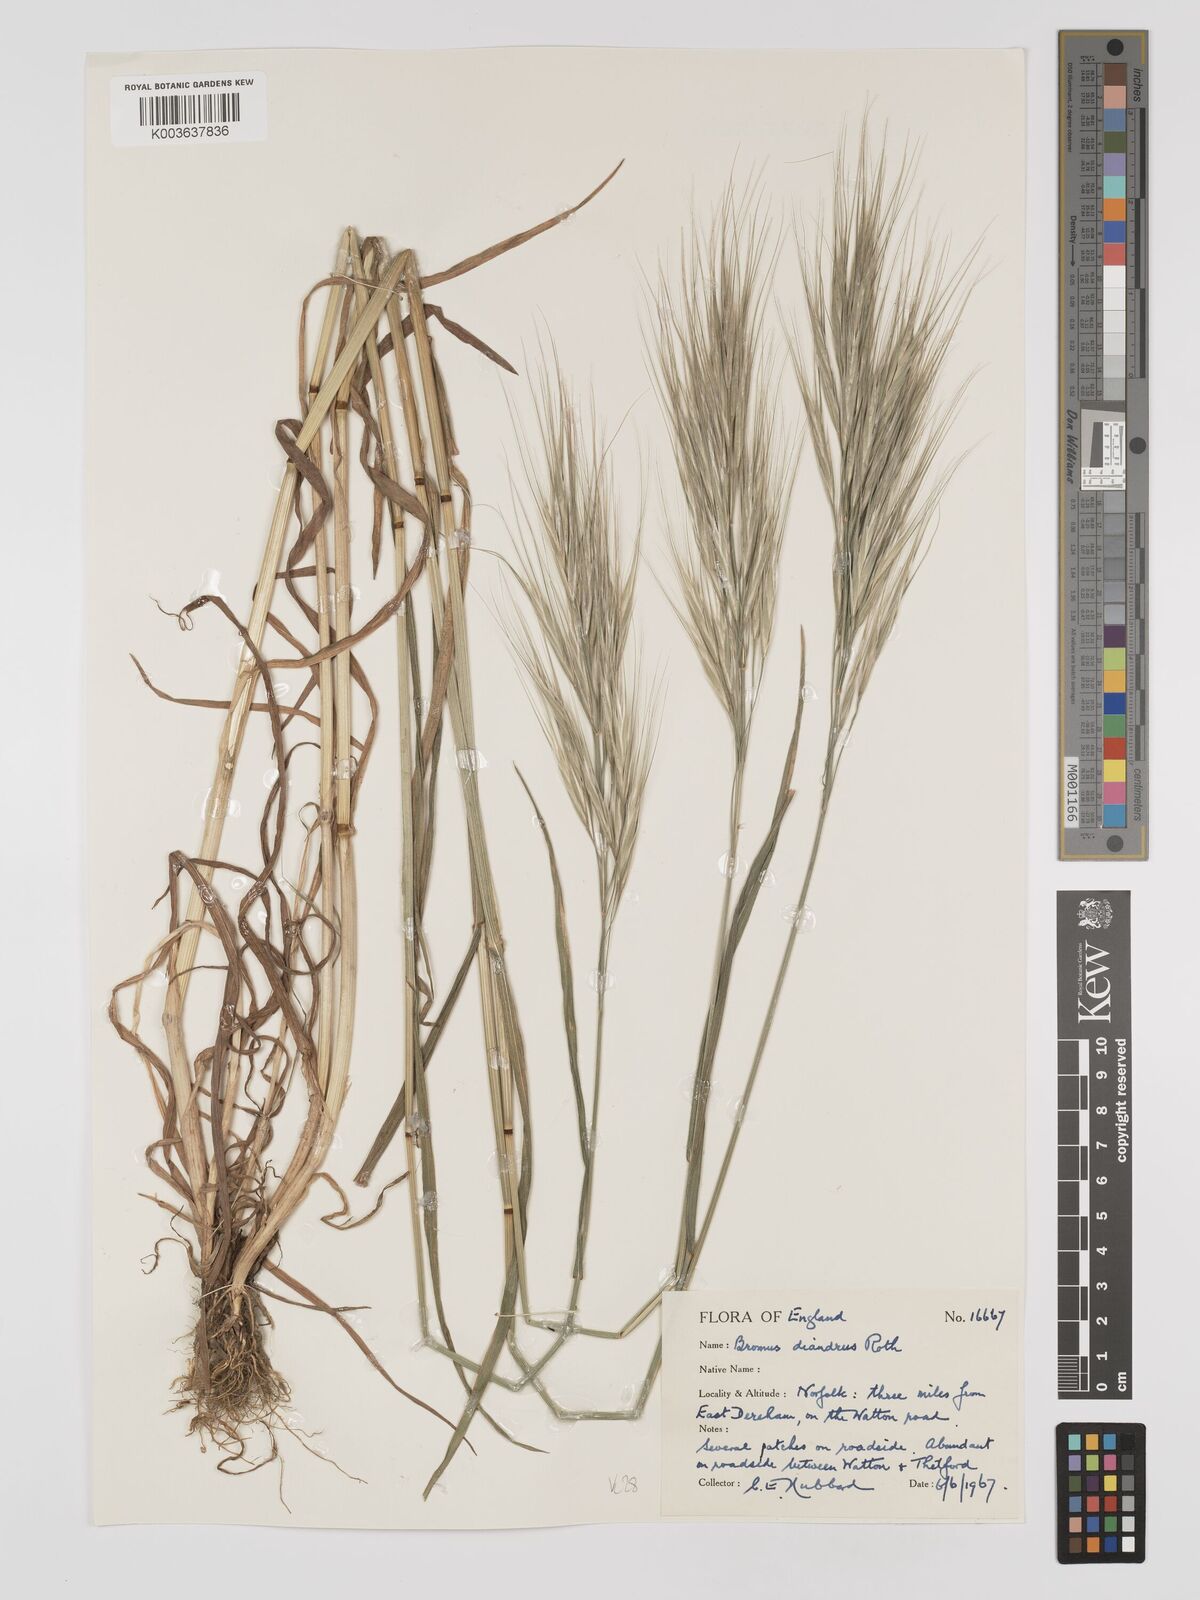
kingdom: Plantae
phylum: Tracheophyta
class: Liliopsida
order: Poales
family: Poaceae
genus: Bromus
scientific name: Bromus
